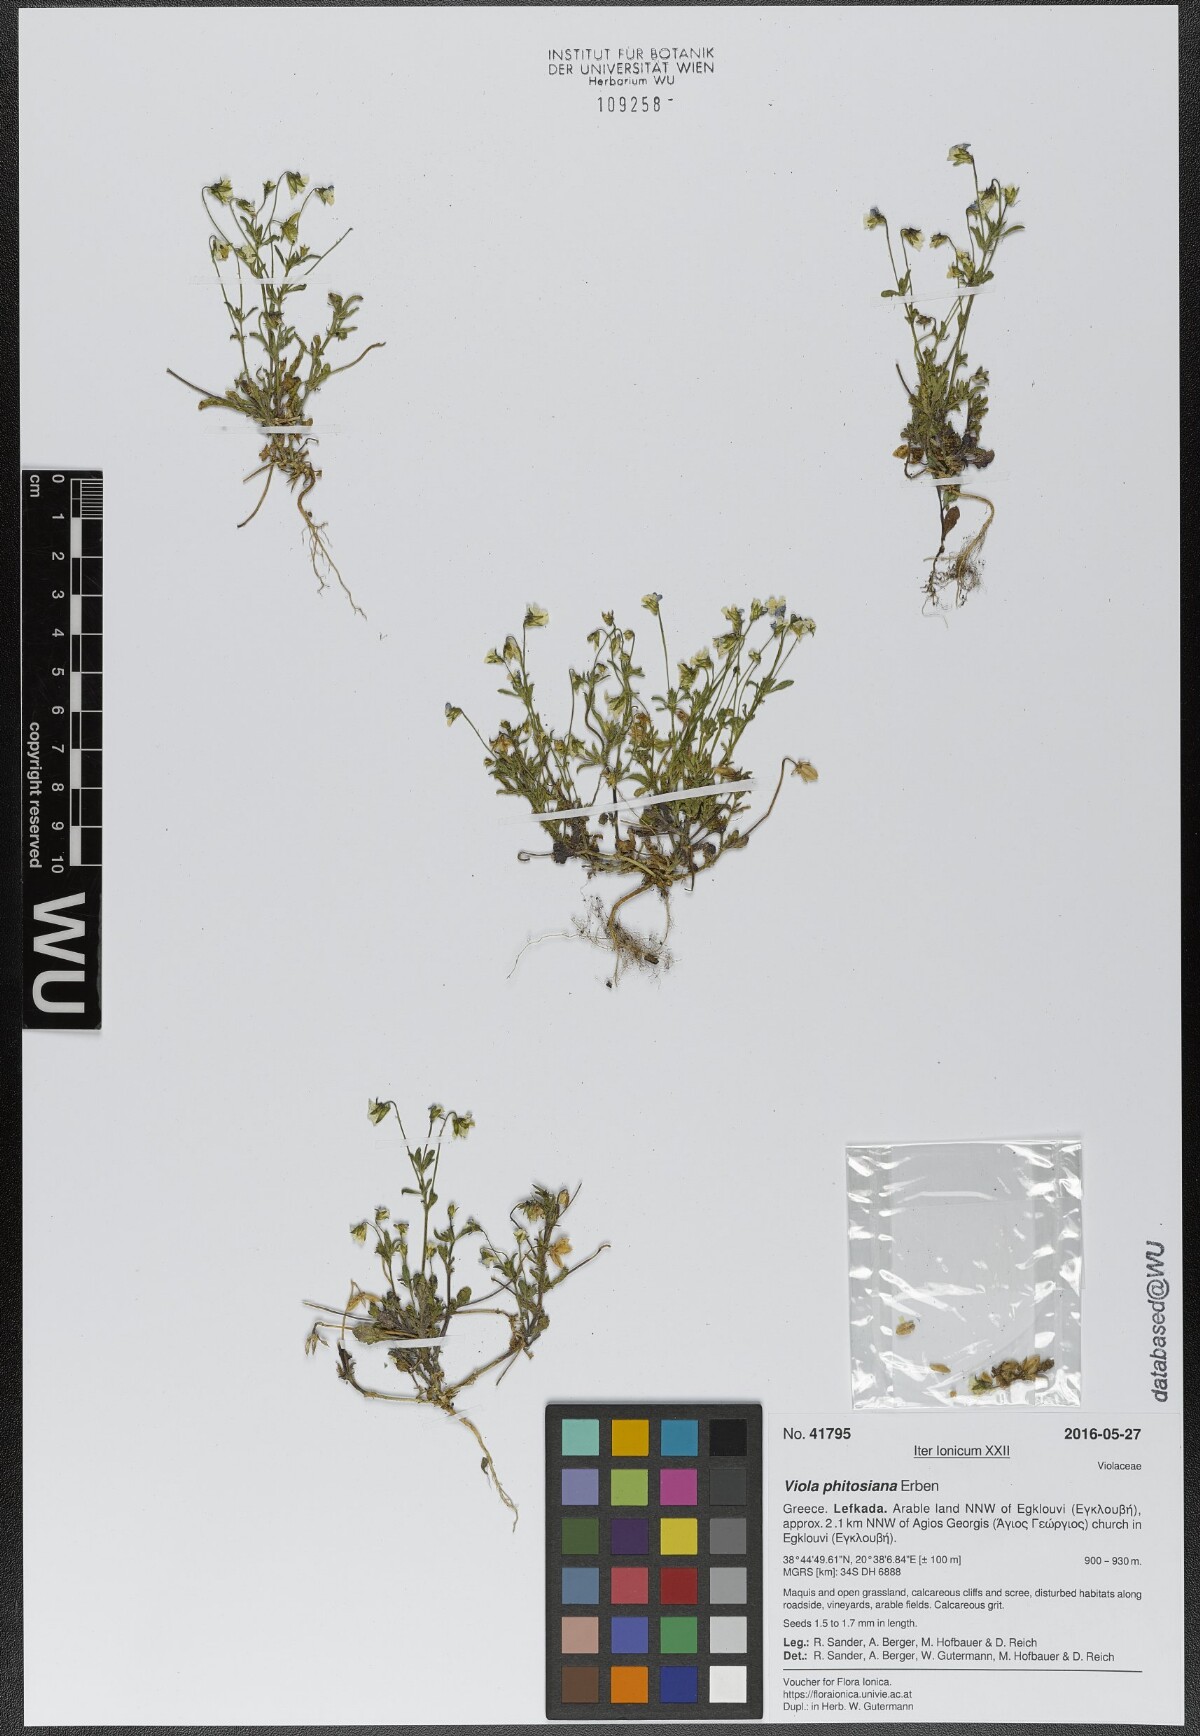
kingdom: Plantae
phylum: Tracheophyta
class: Magnoliopsida
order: Malpighiales
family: Violaceae
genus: Viola
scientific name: Viola phitosiana
